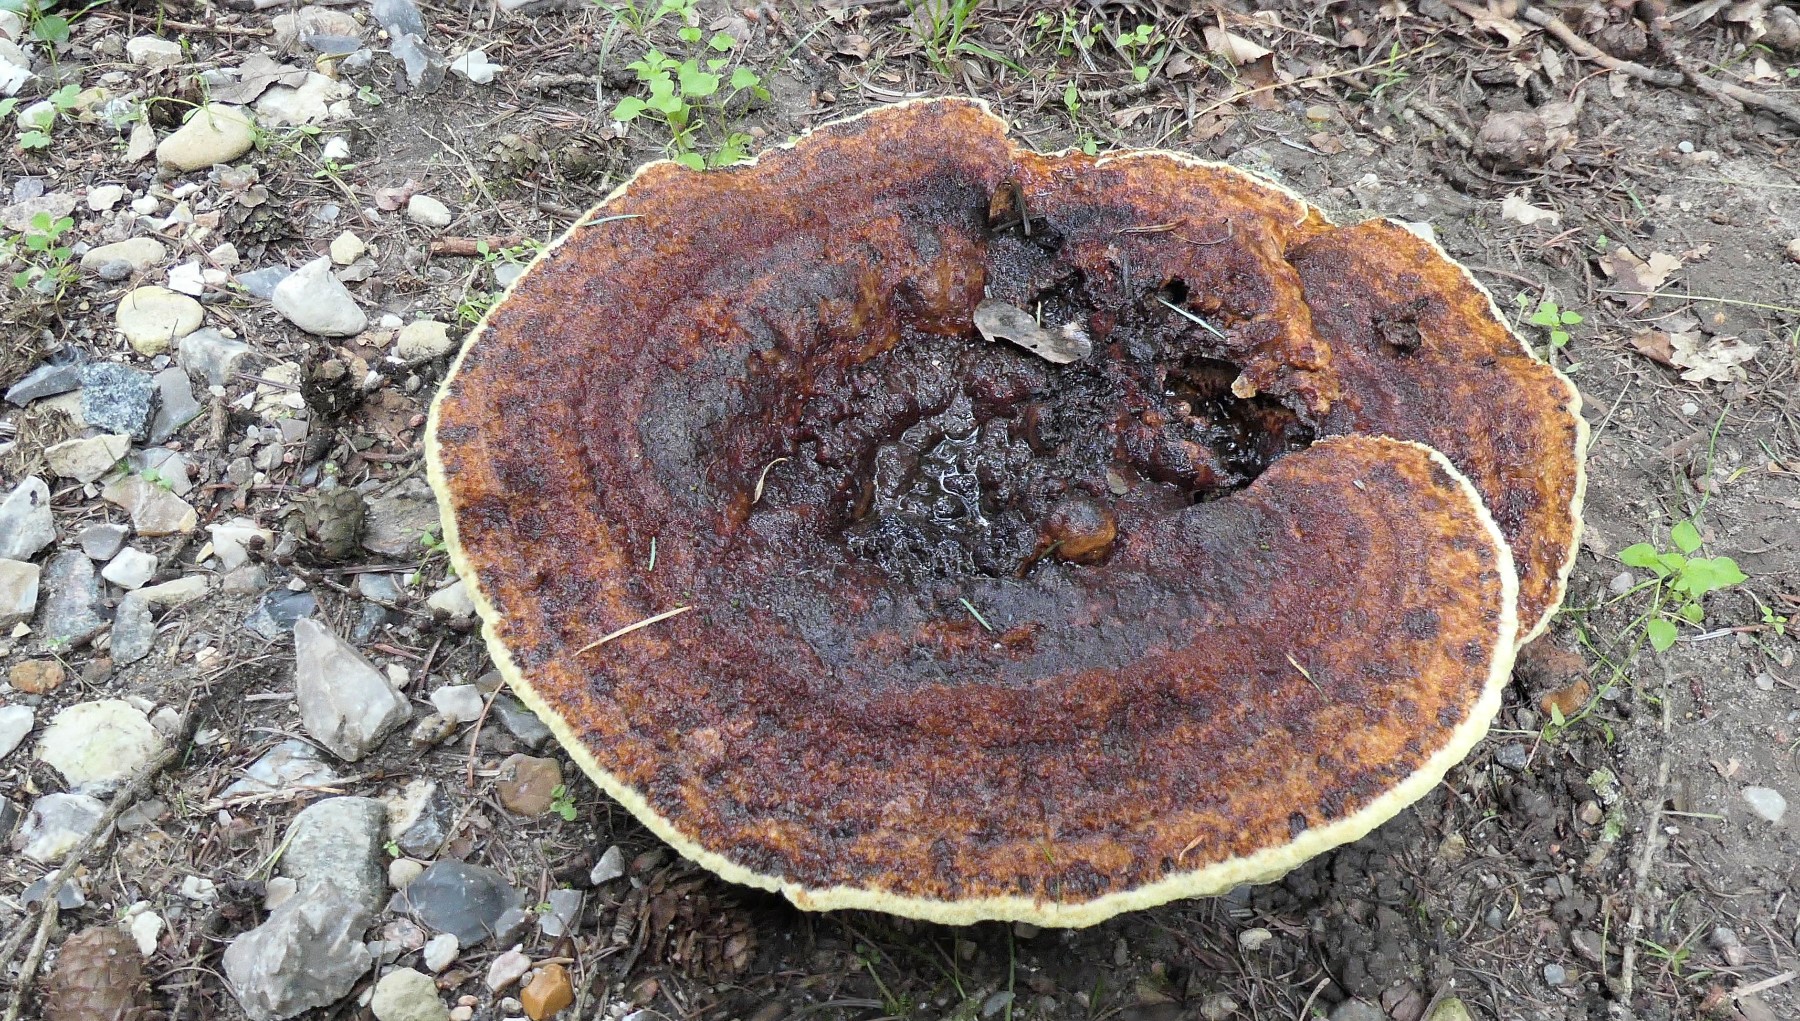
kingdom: Fungi
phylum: Basidiomycota
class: Agaricomycetes
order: Polyporales
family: Laetiporaceae
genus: Phaeolus
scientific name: Phaeolus schweinitzii
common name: brunporesvamp
